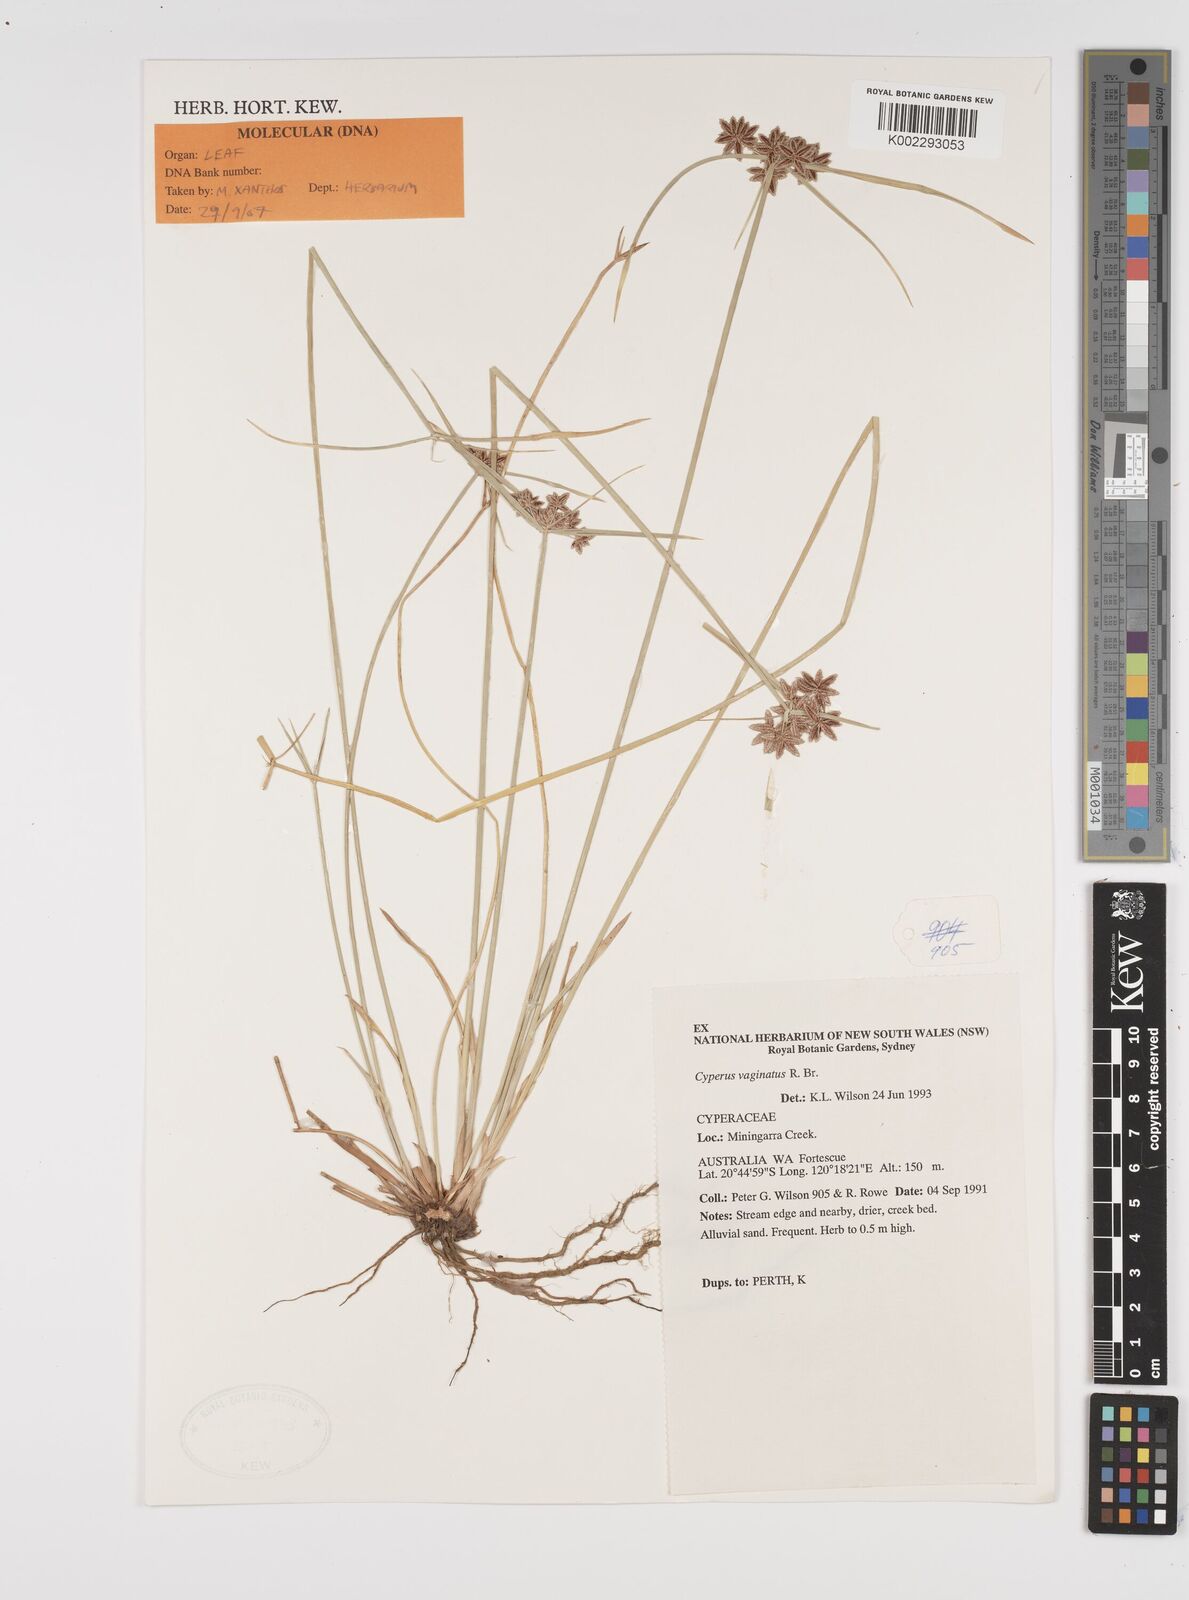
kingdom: Plantae
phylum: Tracheophyta
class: Liliopsida
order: Poales
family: Cyperaceae
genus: Cyperus
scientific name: Cyperus vaginatus
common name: Stiff-leaved flat-sedge
